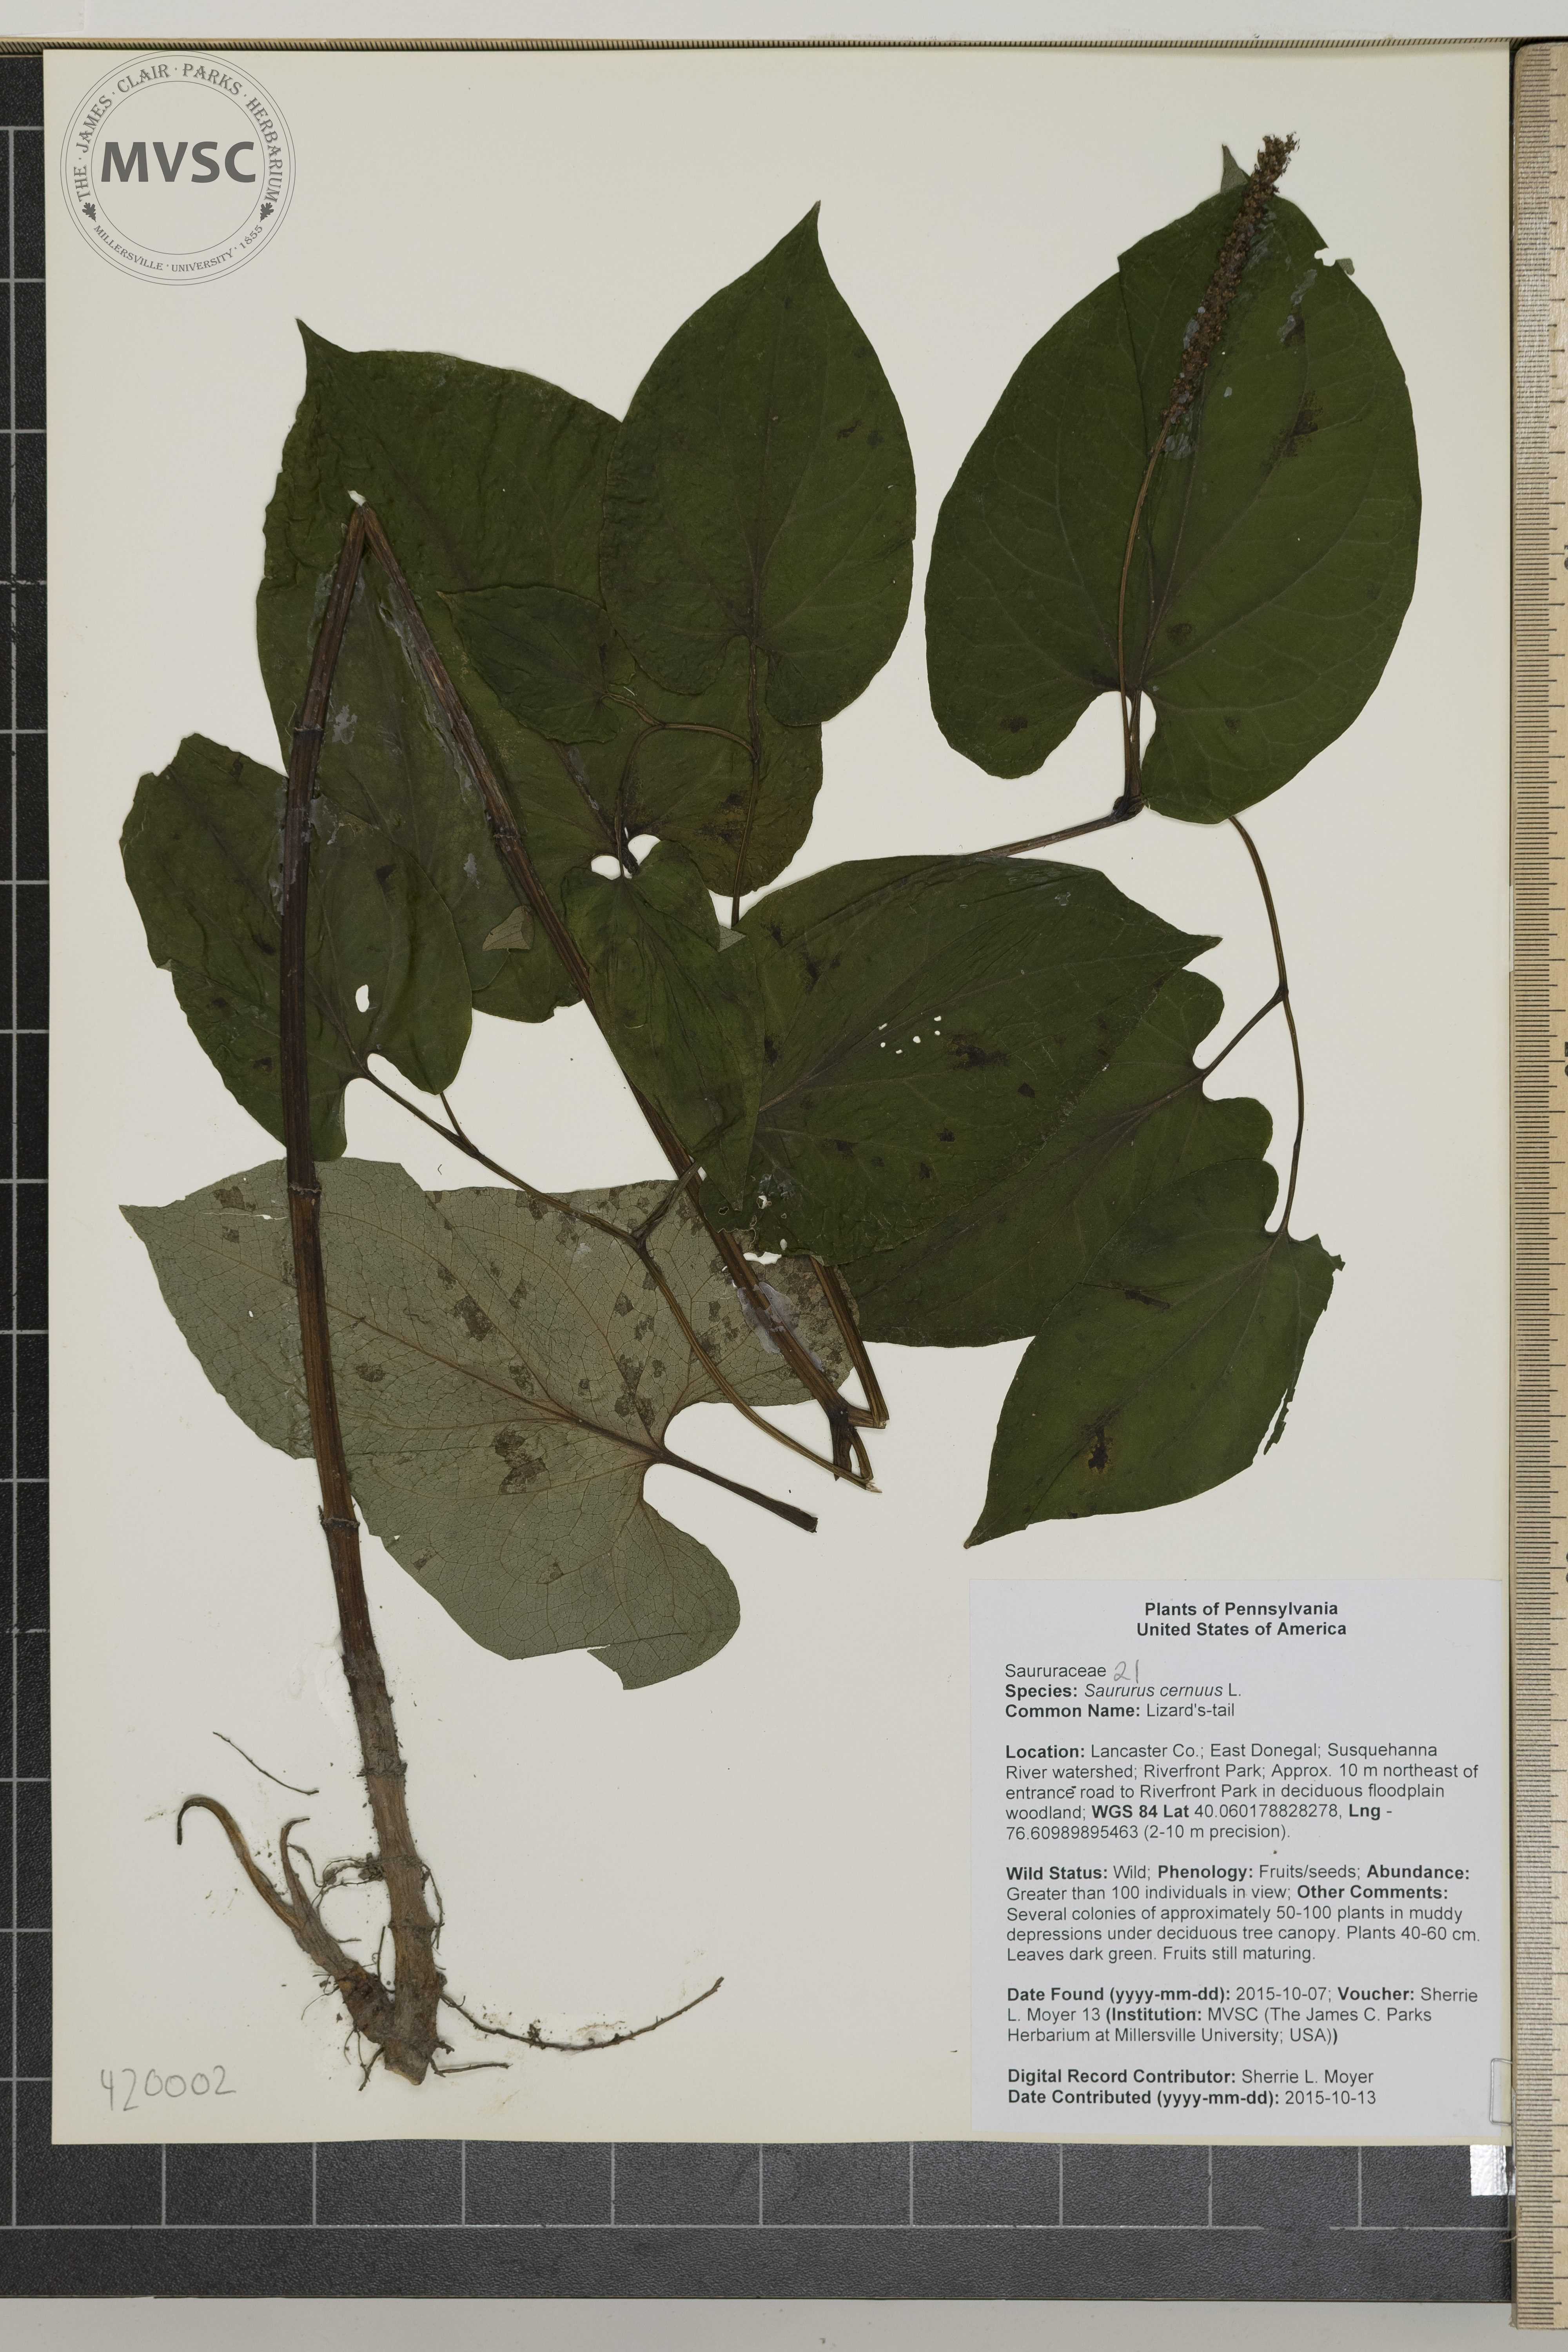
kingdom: Plantae
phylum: Tracheophyta
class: Magnoliopsida
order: Piperales
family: Saururaceae
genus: Saururus
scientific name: Saururus cernuus
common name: Lizard's-tail
